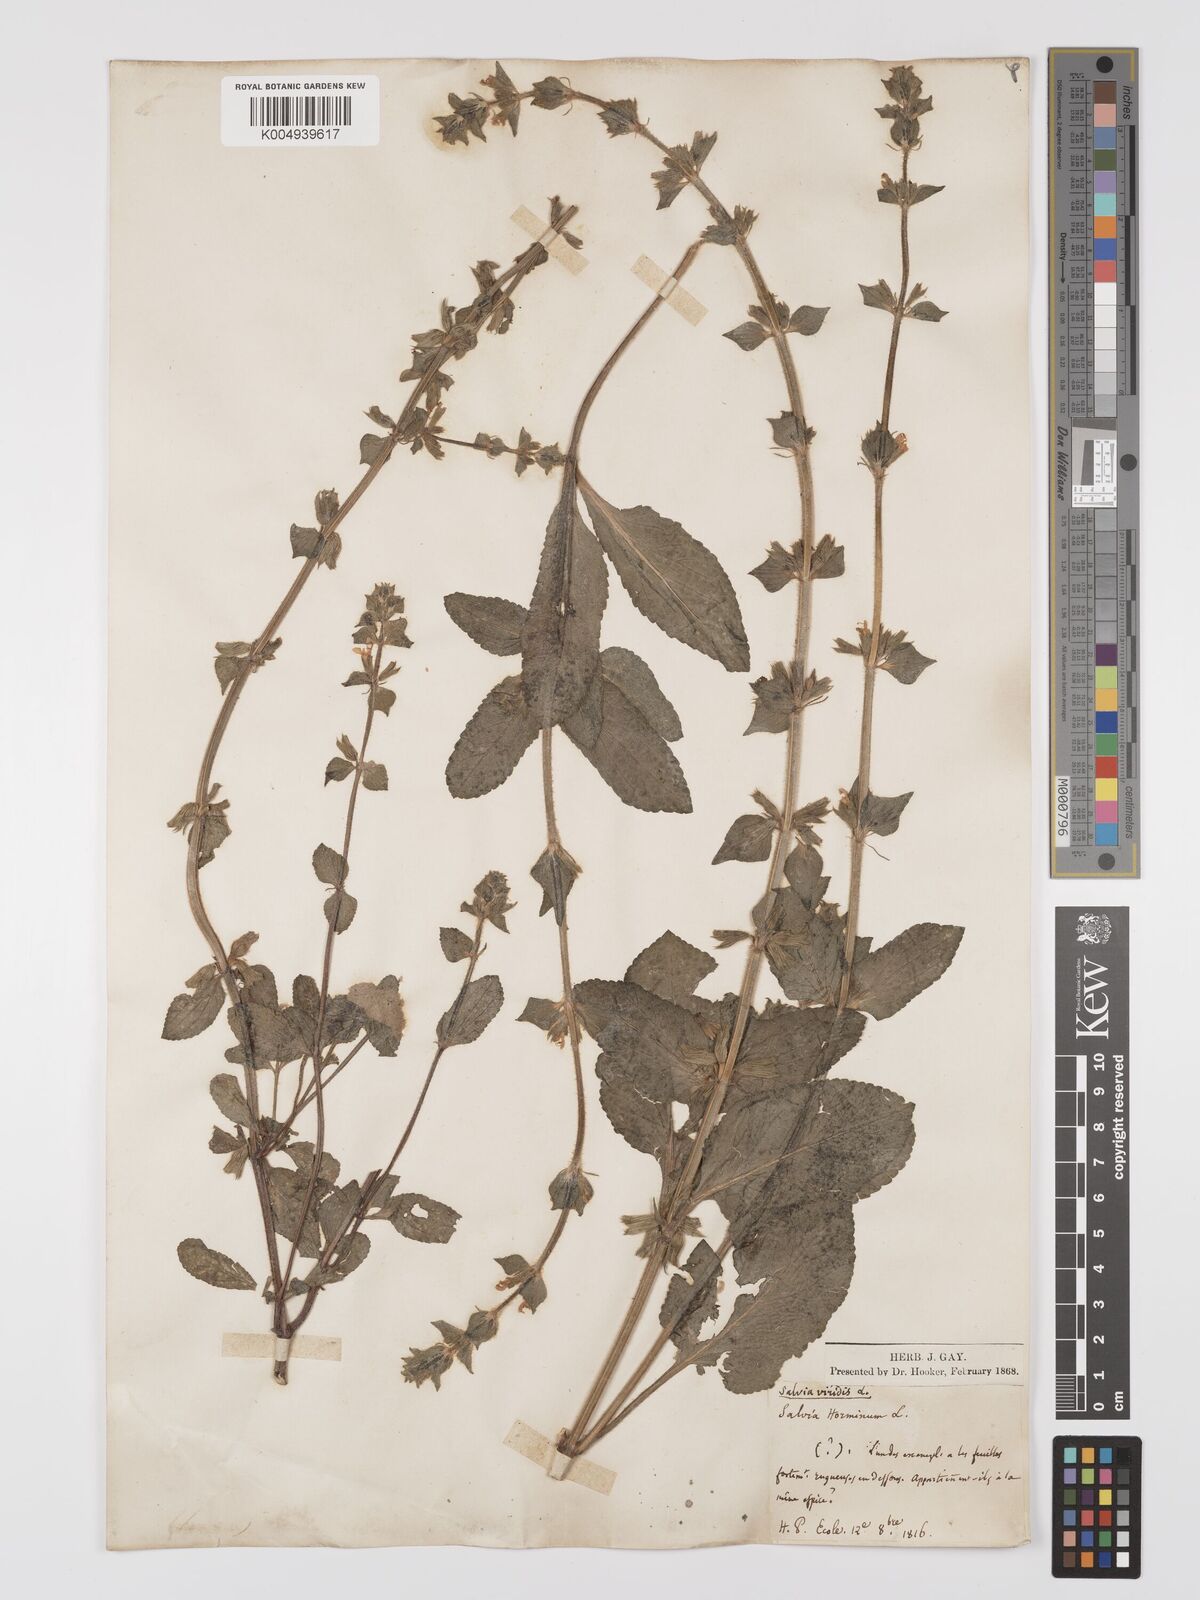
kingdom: Plantae
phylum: Tracheophyta
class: Magnoliopsida
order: Lamiales
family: Lamiaceae
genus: Salvia
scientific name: Salvia viridis
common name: Annual clary
